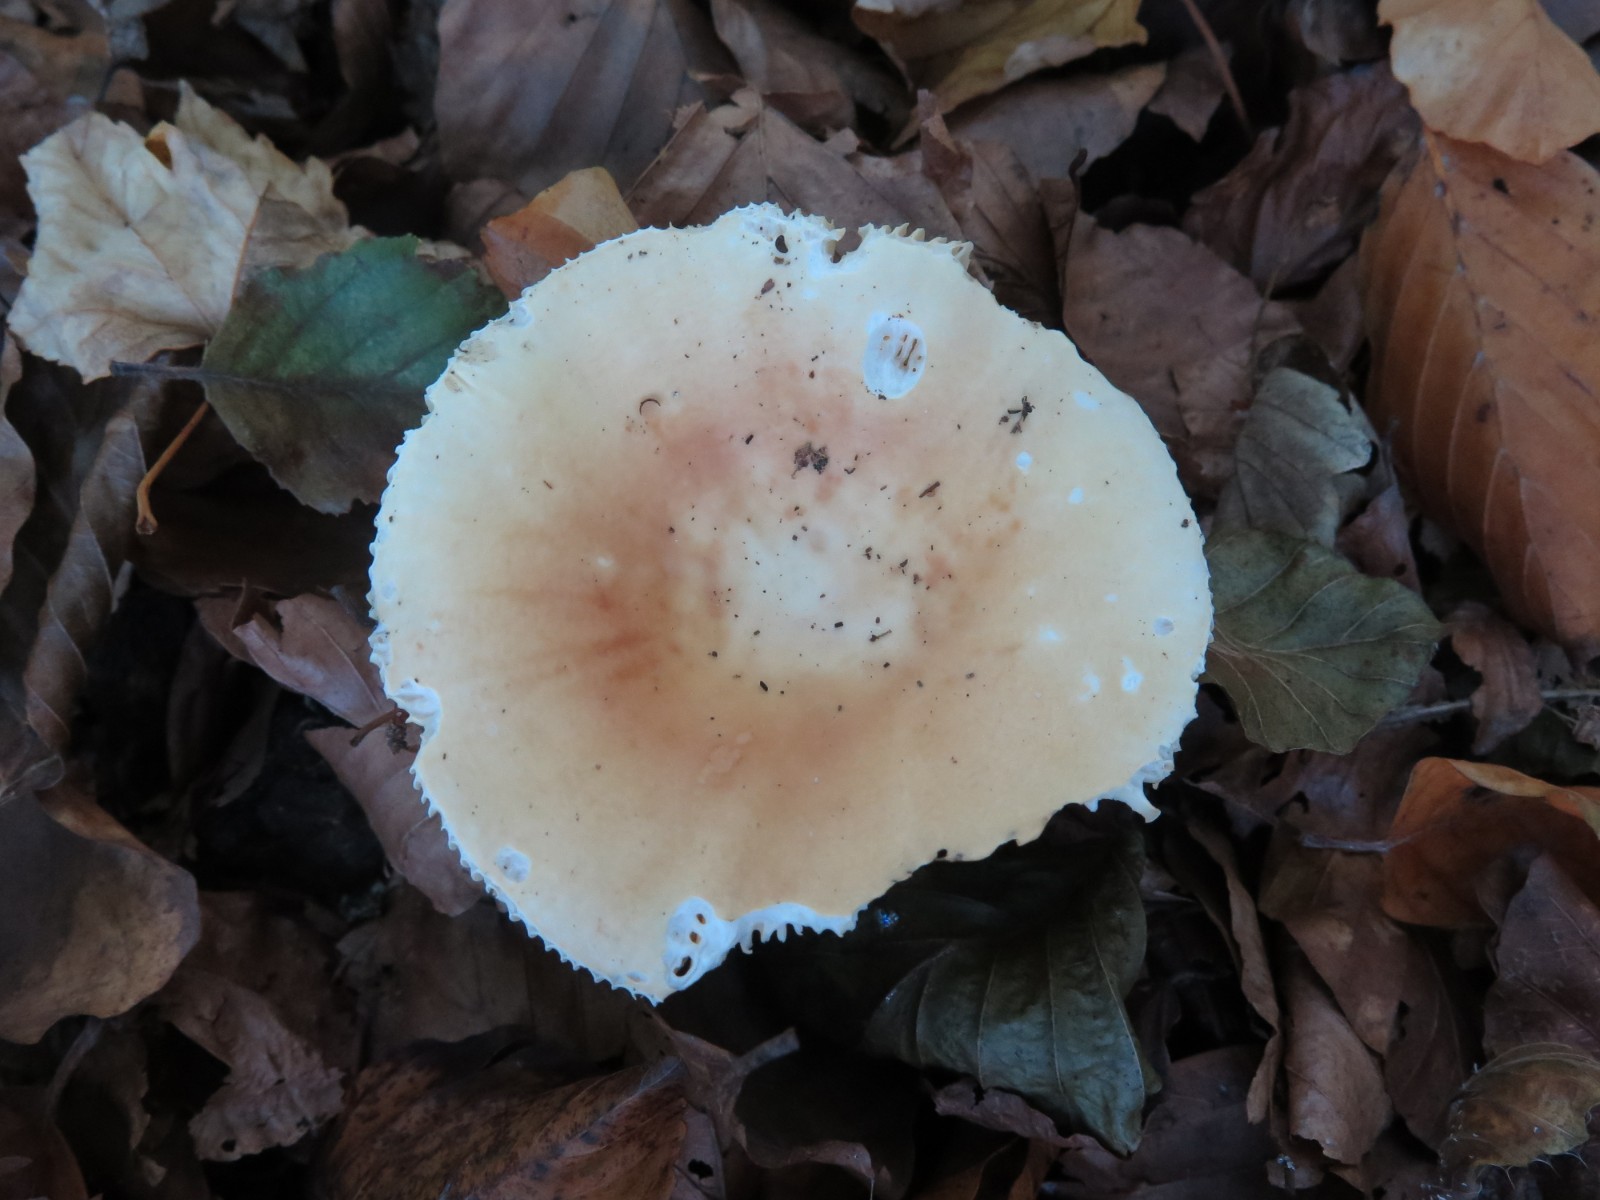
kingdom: Fungi
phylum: Basidiomycota
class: Agaricomycetes
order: Russulales
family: Russulaceae
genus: Russula
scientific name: Russula risigallina
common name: abrikos-skørhat
